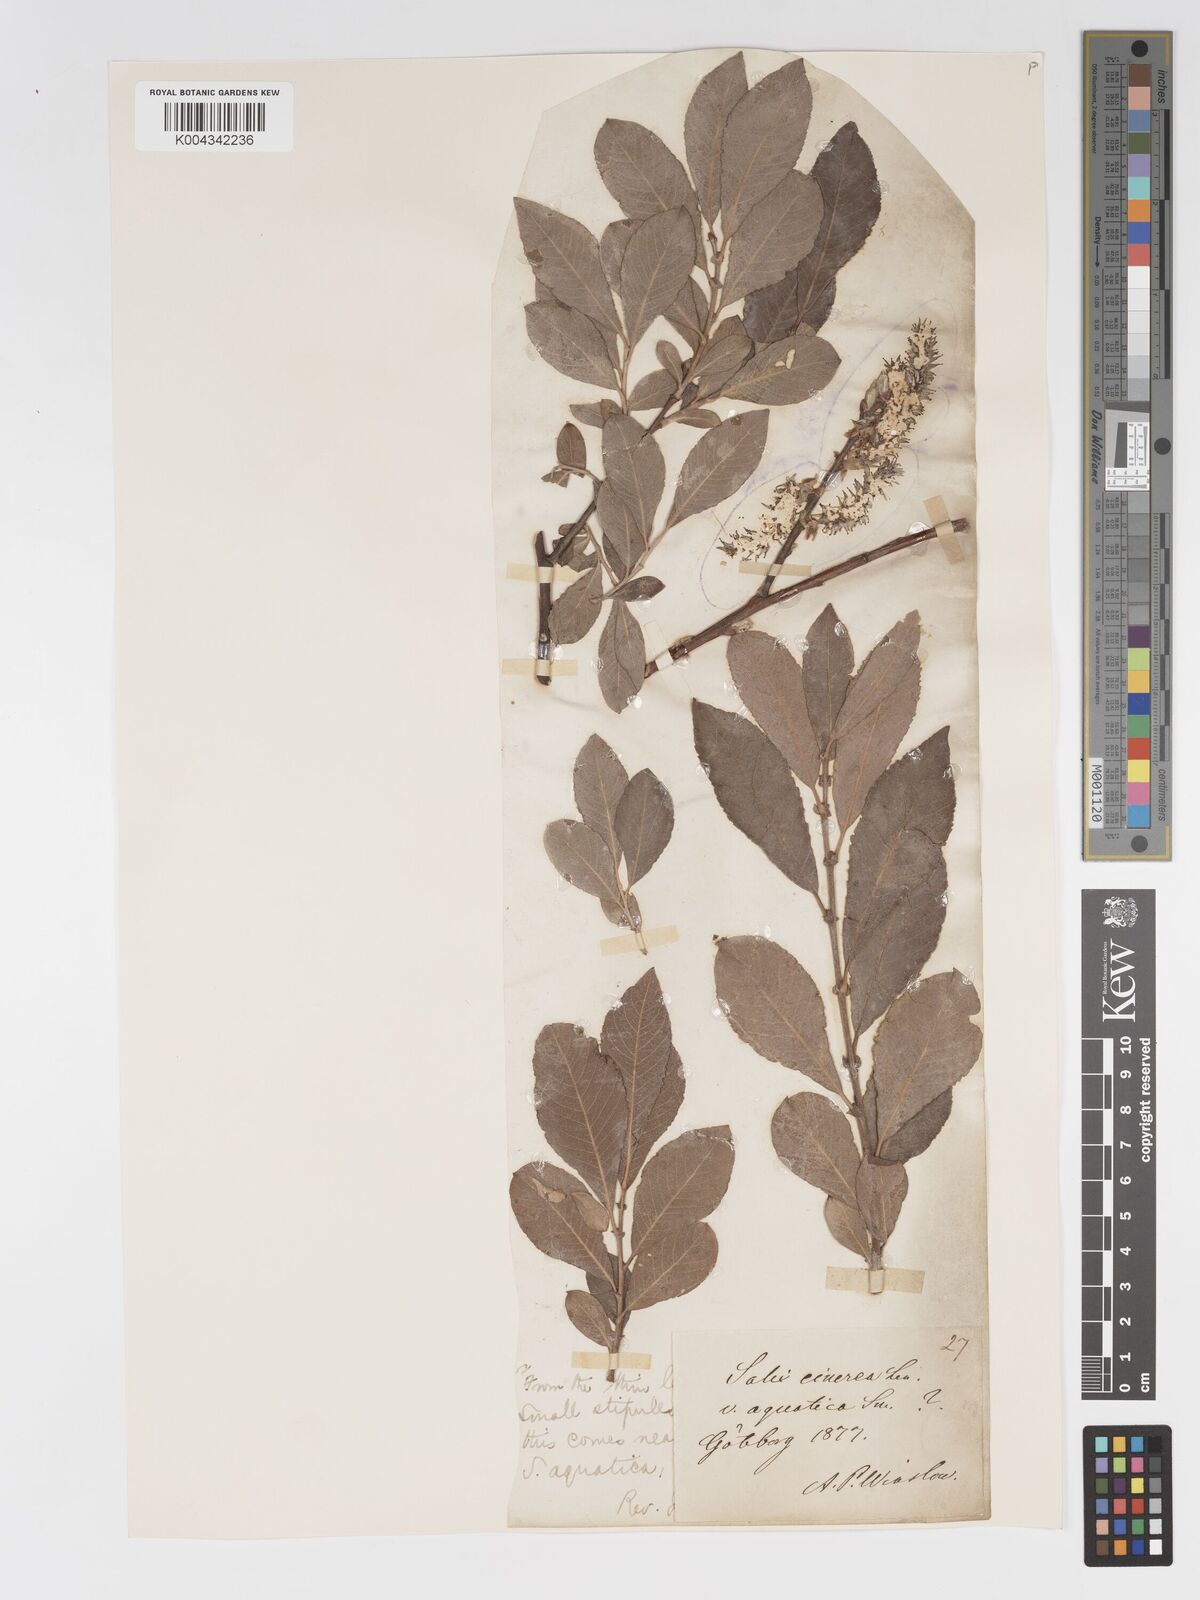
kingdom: Plantae
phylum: Tracheophyta
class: Magnoliopsida
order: Malpighiales
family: Salicaceae
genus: Salix
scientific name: Salix
